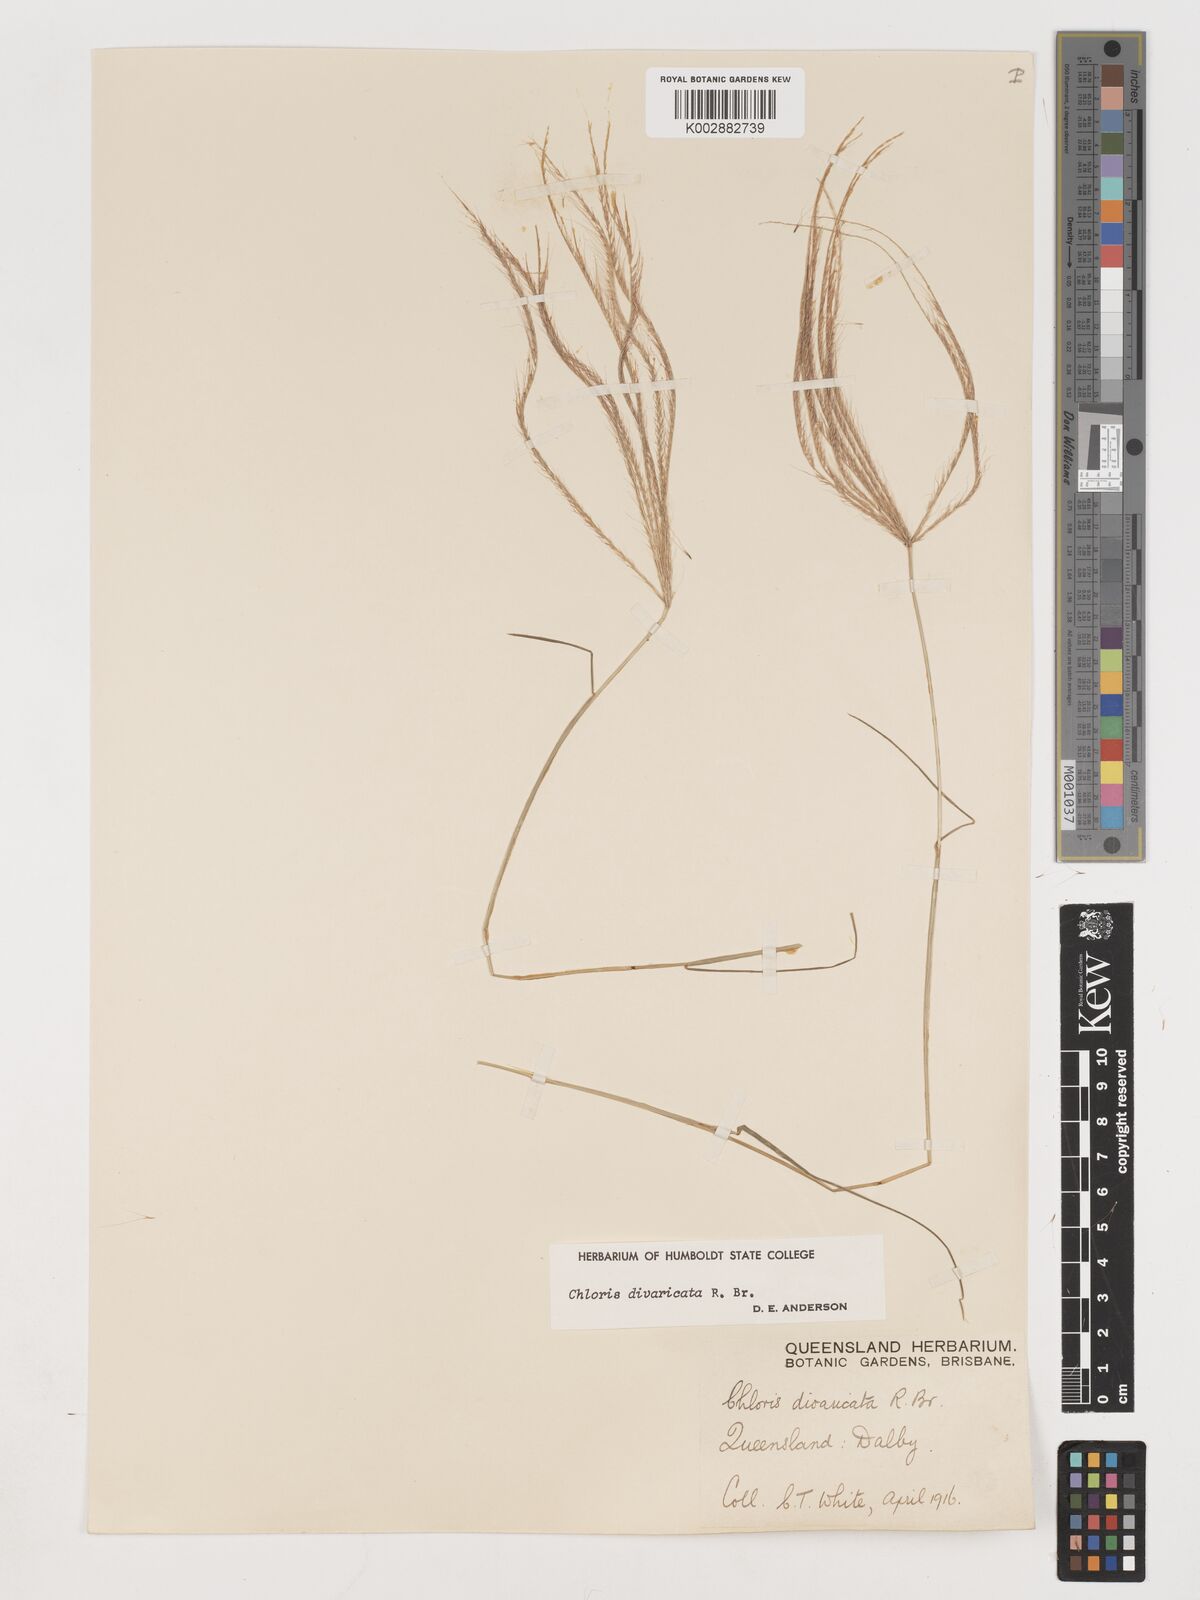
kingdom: Plantae
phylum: Tracheophyta
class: Liliopsida
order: Poales
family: Poaceae
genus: Chloris
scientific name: Chloris divaricata
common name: Spreading windmill grass
